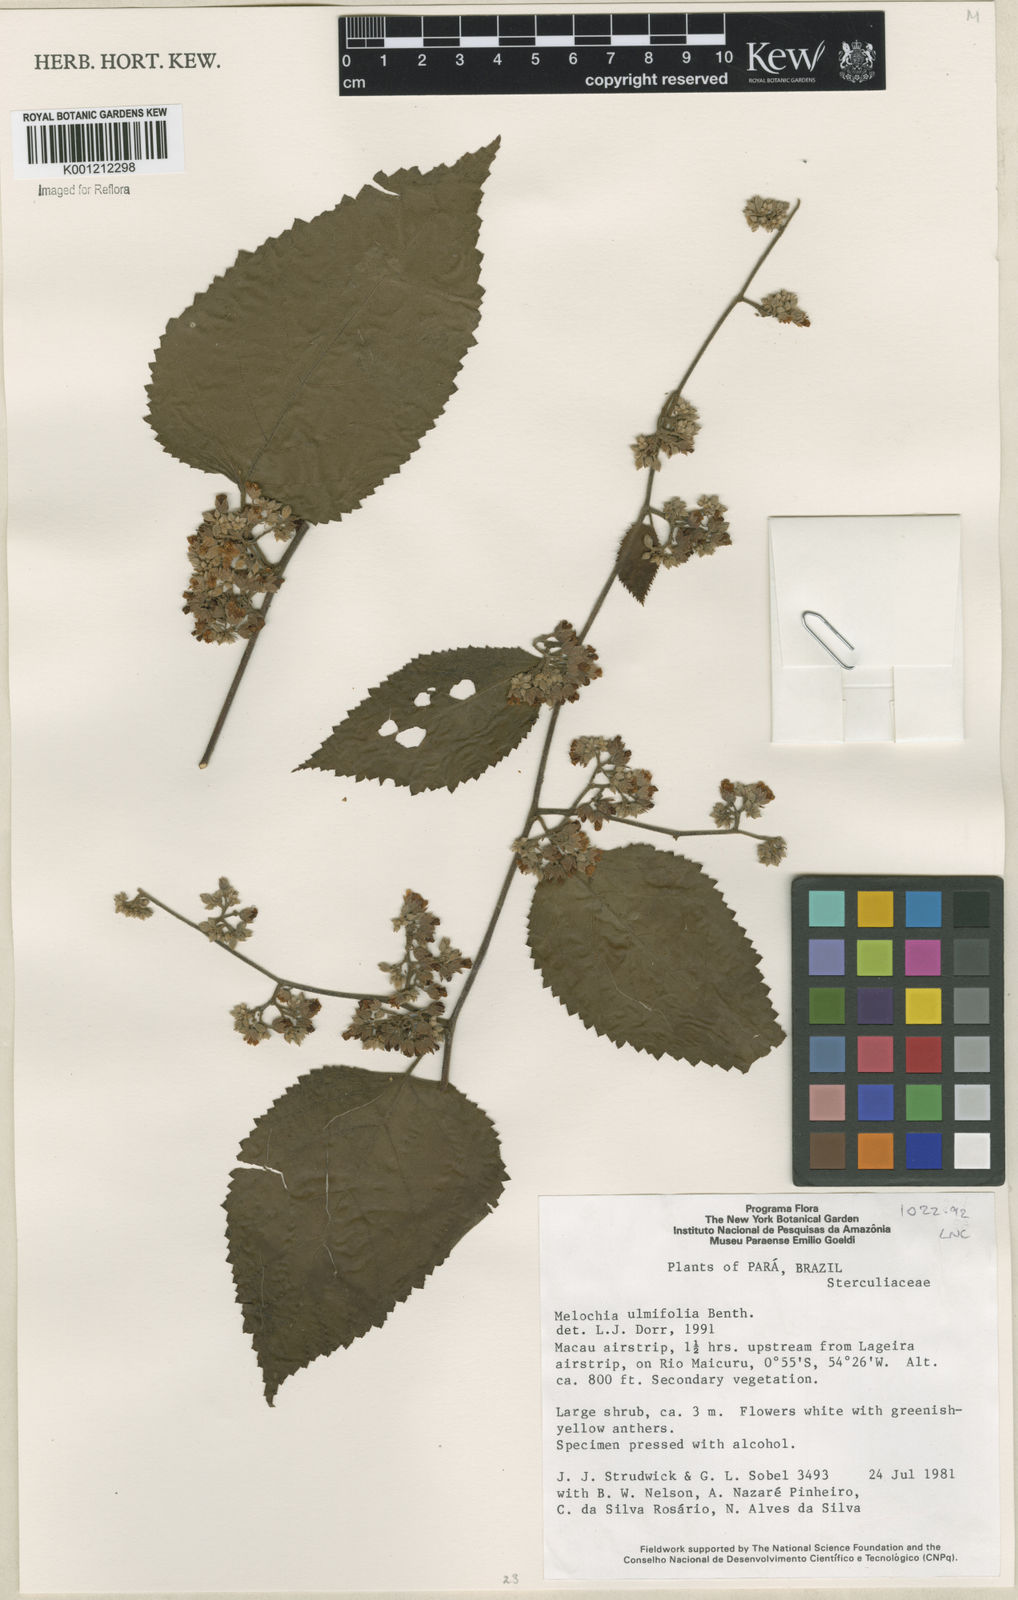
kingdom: Plantae
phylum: Tracheophyta
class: Magnoliopsida
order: Malvales
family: Malvaceae
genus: Melochia
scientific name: Melochia ulmifolia
